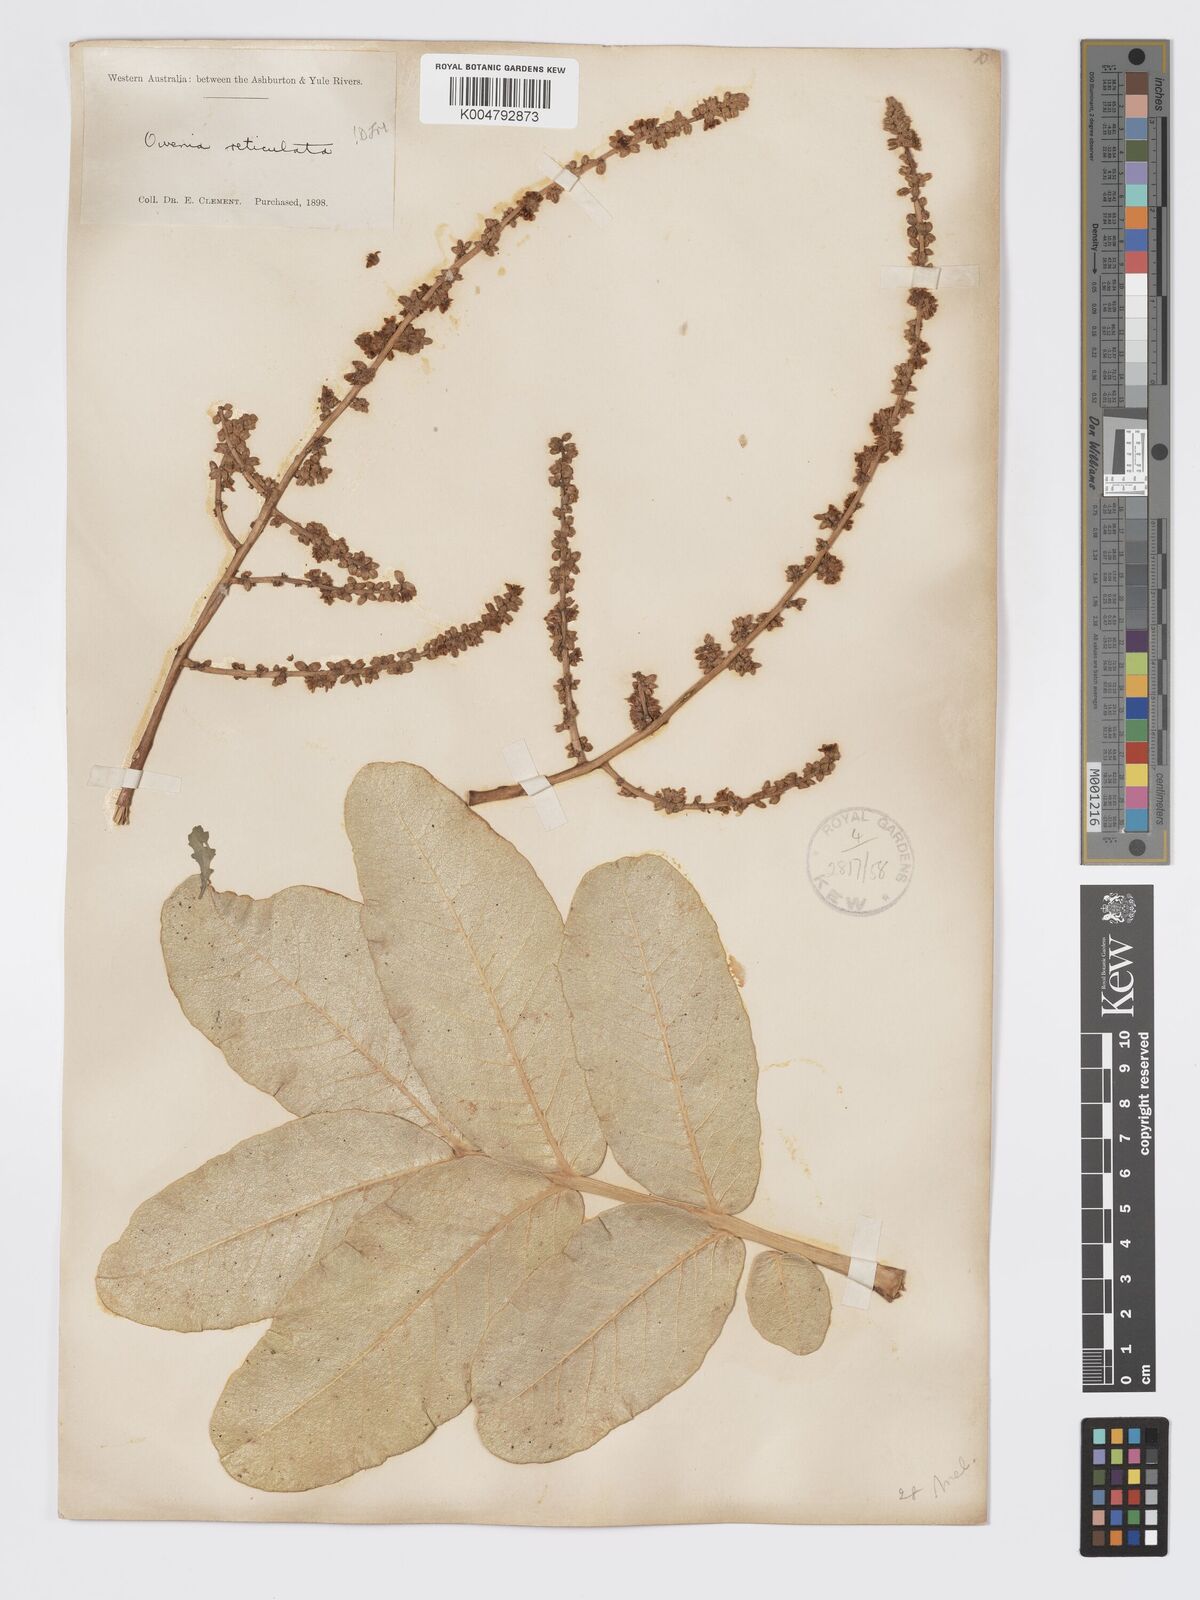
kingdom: Plantae
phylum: Tracheophyta
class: Magnoliopsida
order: Sapindales
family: Meliaceae
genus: Owenia
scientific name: Owenia reticulata
